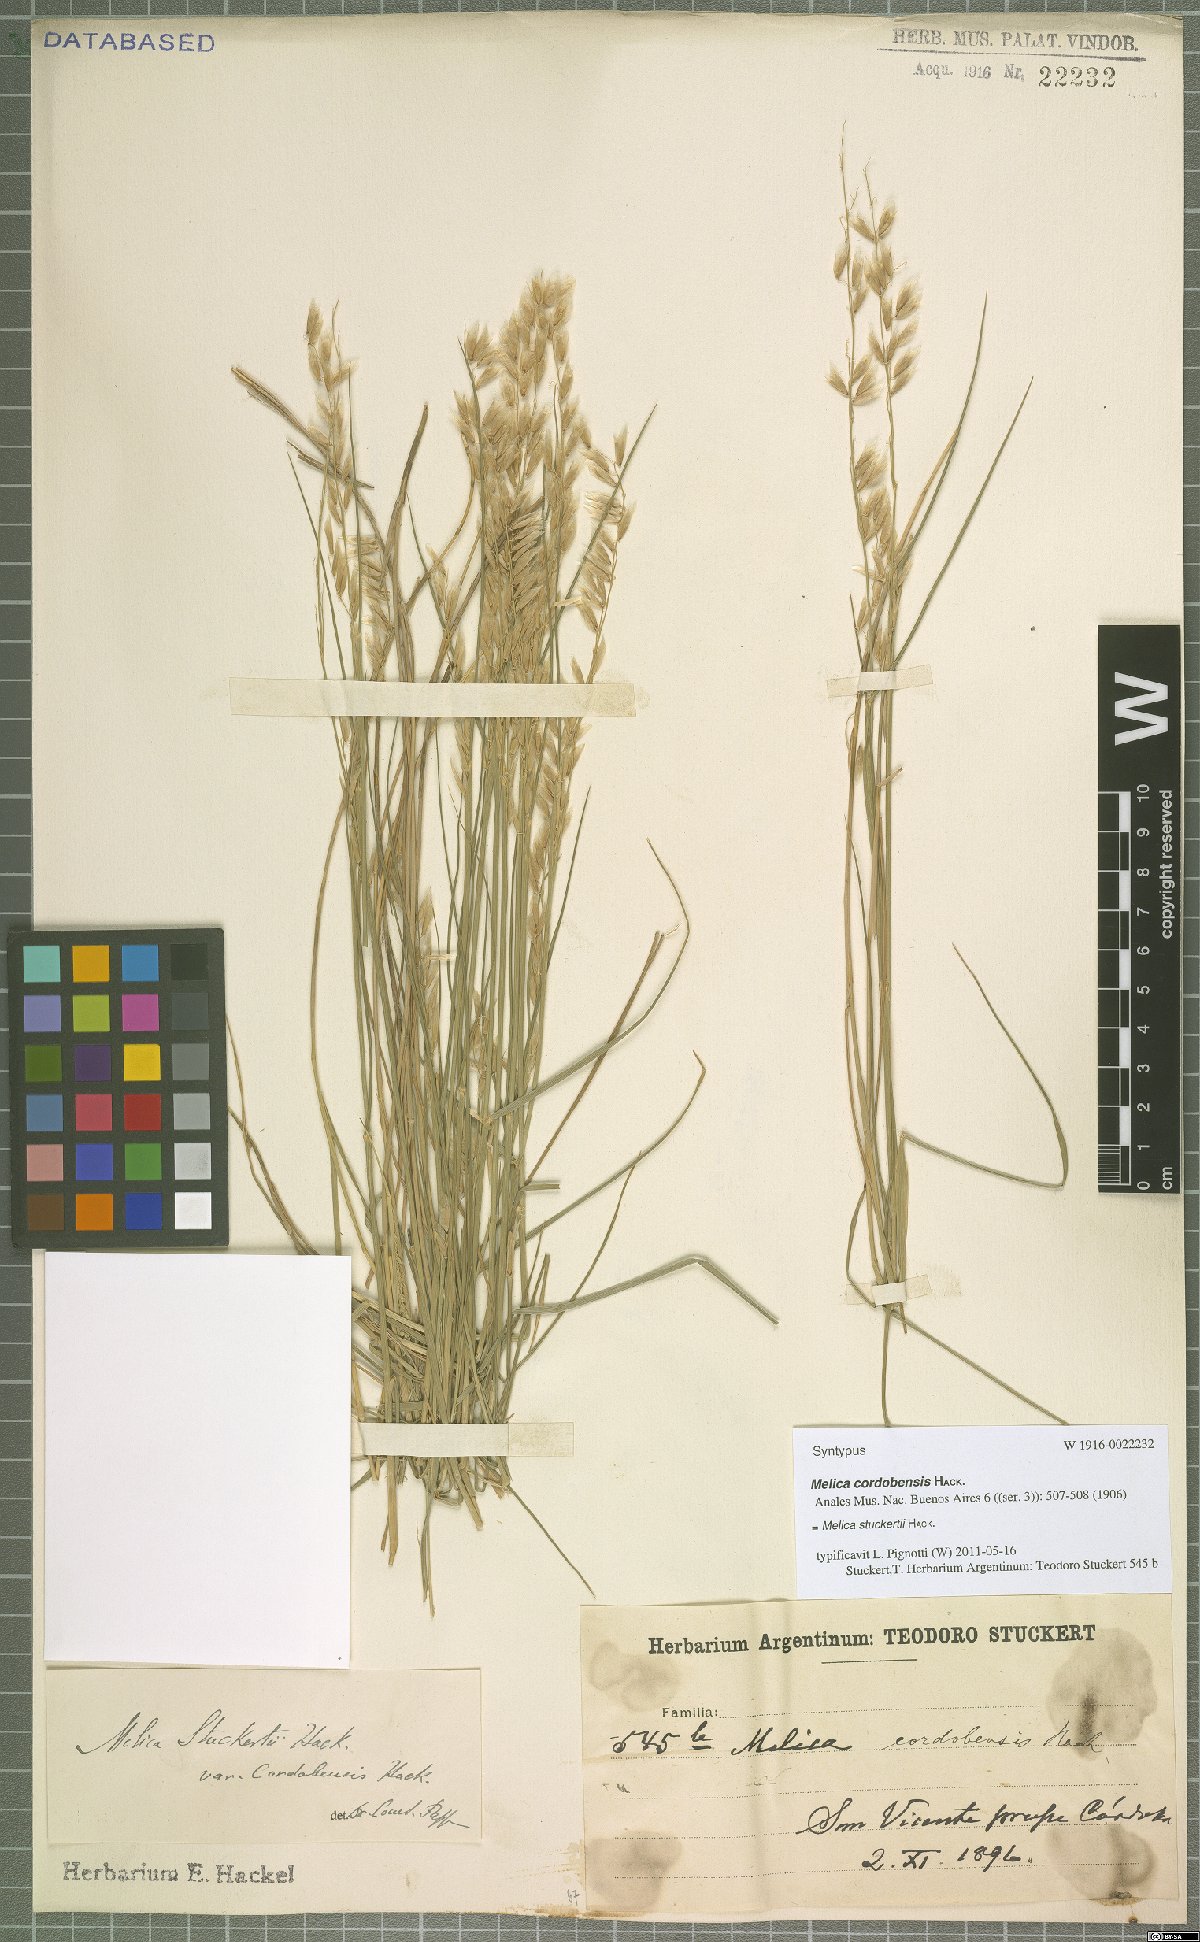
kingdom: Plantae
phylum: Tracheophyta
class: Liliopsida
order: Poales
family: Poaceae
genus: Melica
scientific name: Melica stuckertii
